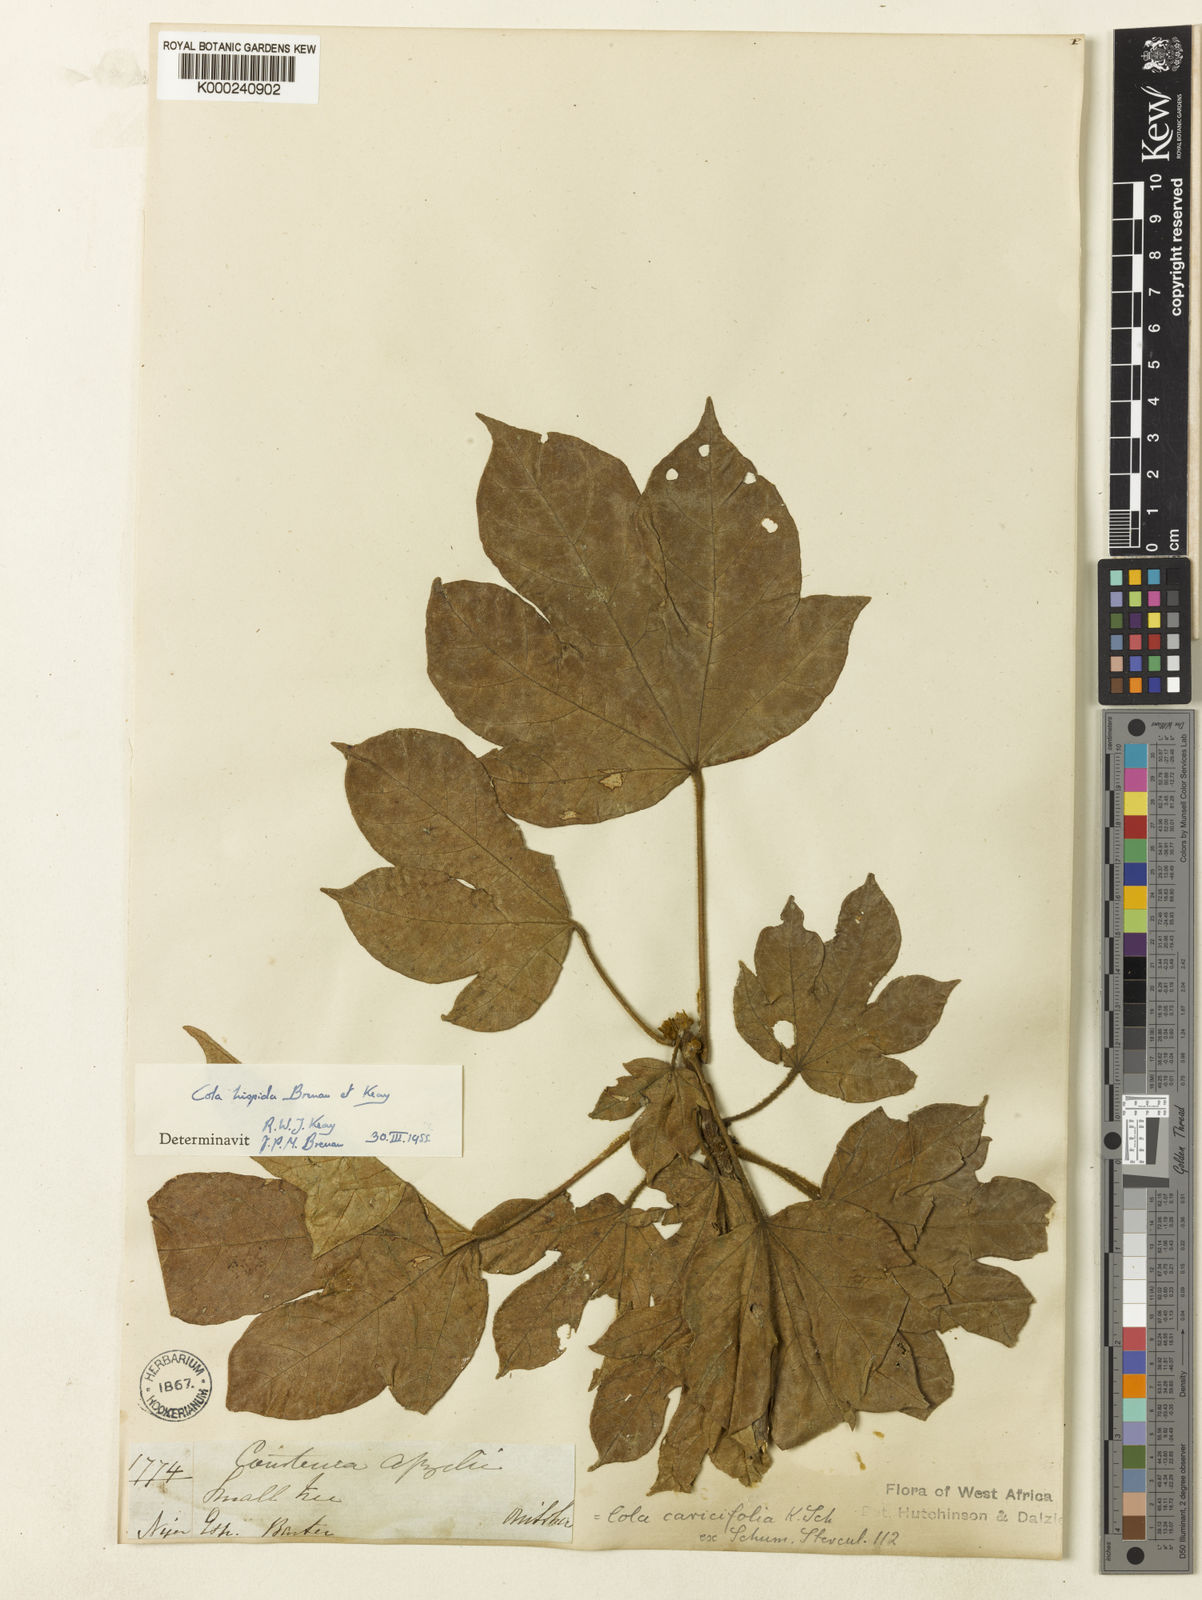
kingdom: Plantae
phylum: Tracheophyta
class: Magnoliopsida
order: Malvales
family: Malvaceae
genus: Cola
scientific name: Cola hispida
